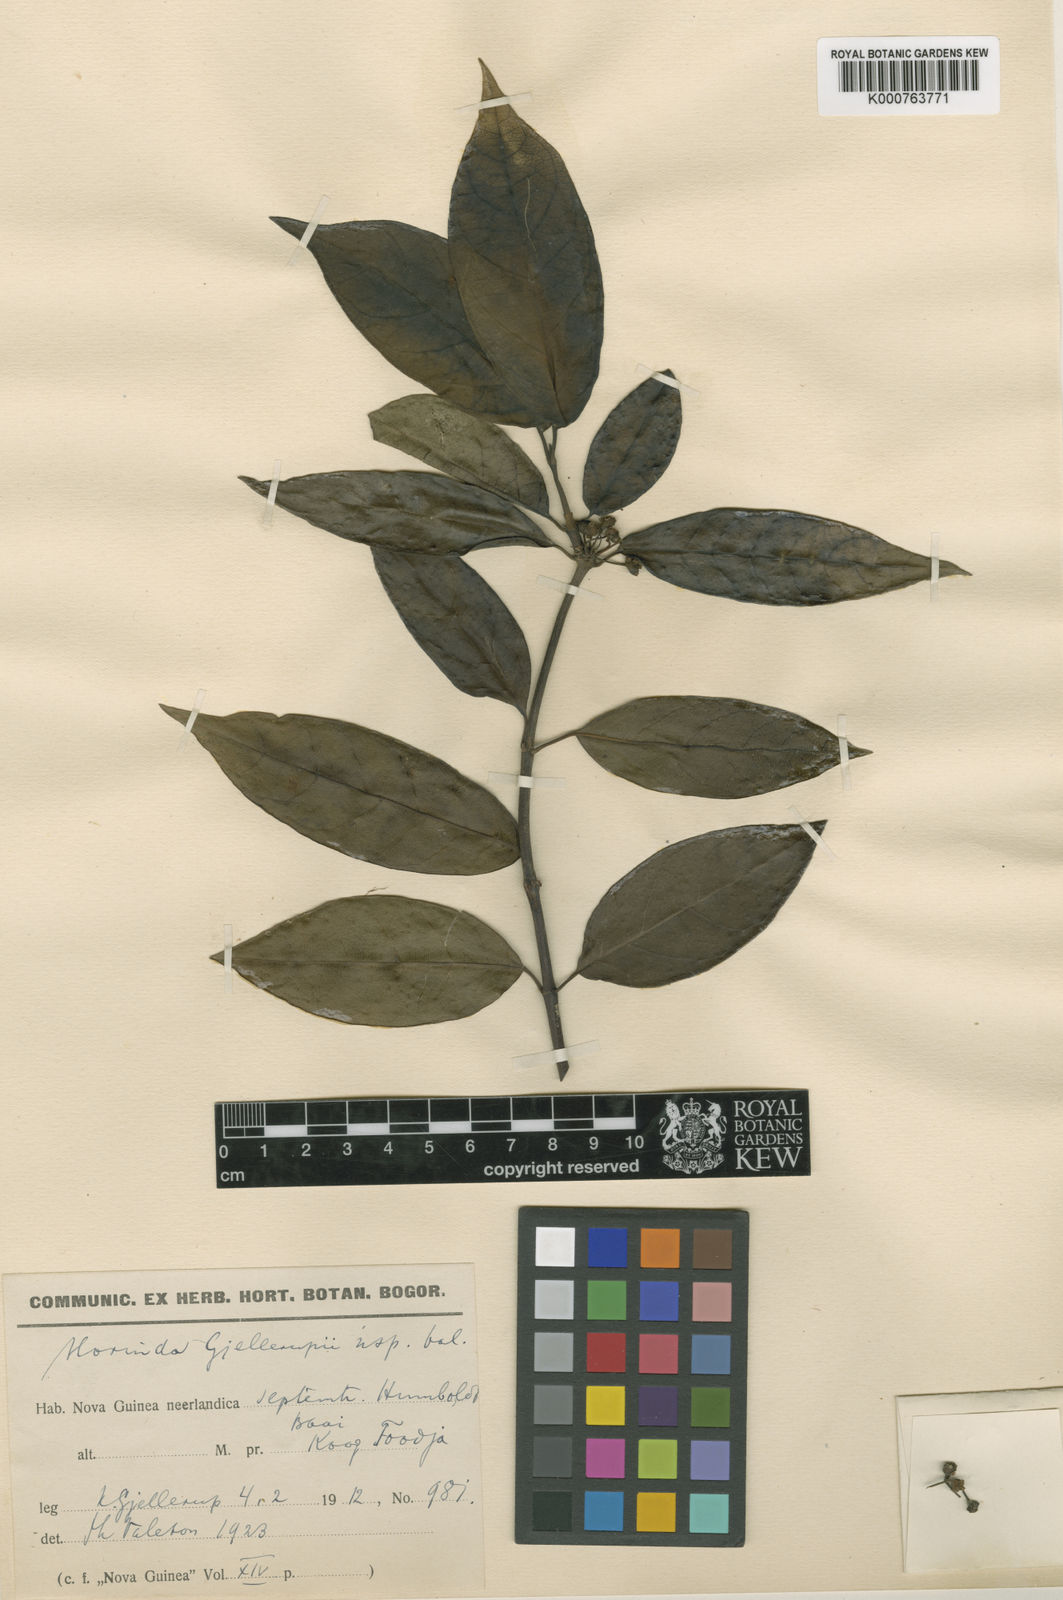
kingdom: Plantae
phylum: Tracheophyta
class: Magnoliopsida
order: Gentianales
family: Rubiaceae
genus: Gynochthodes
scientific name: Gynochthodes gjellerupii
